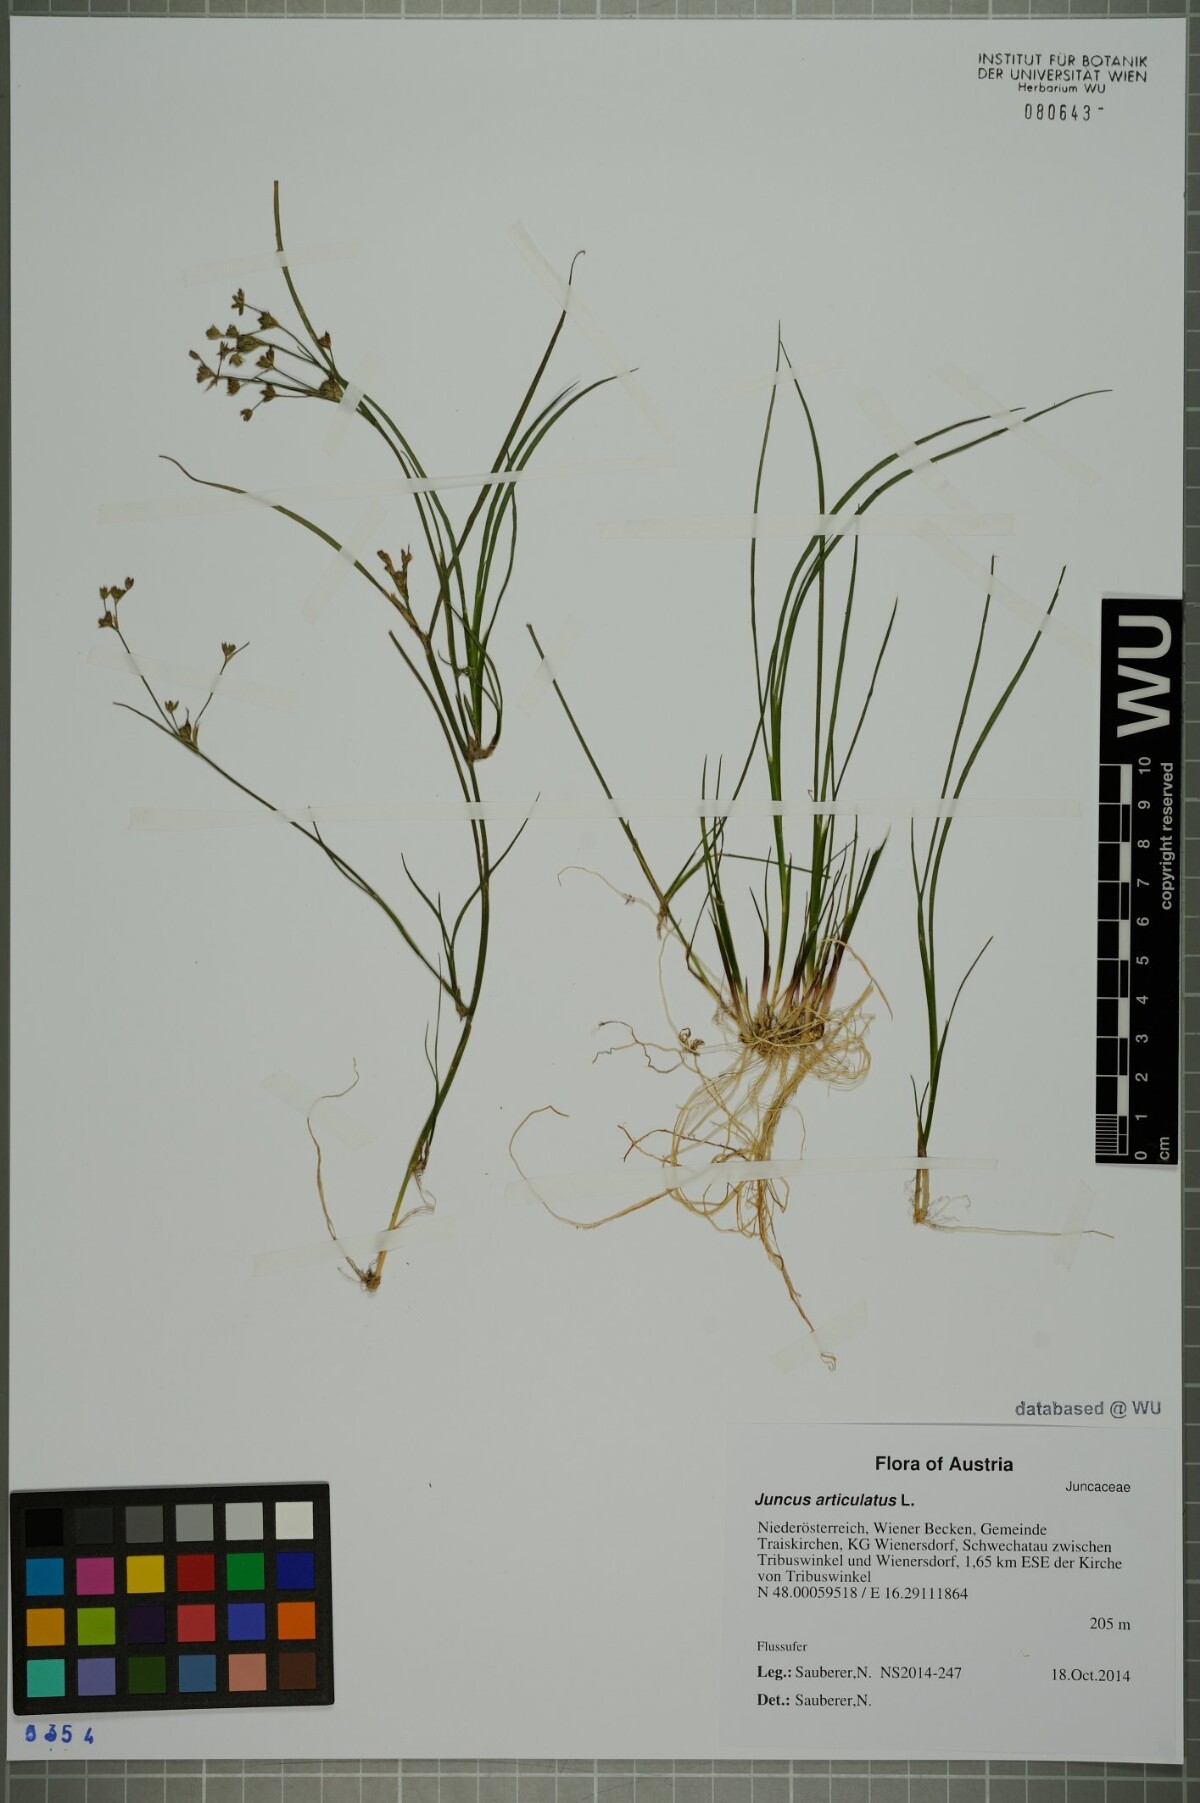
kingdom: Plantae
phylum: Tracheophyta
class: Liliopsida
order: Poales
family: Juncaceae
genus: Juncus
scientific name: Juncus articulatus
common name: Jointed rush
